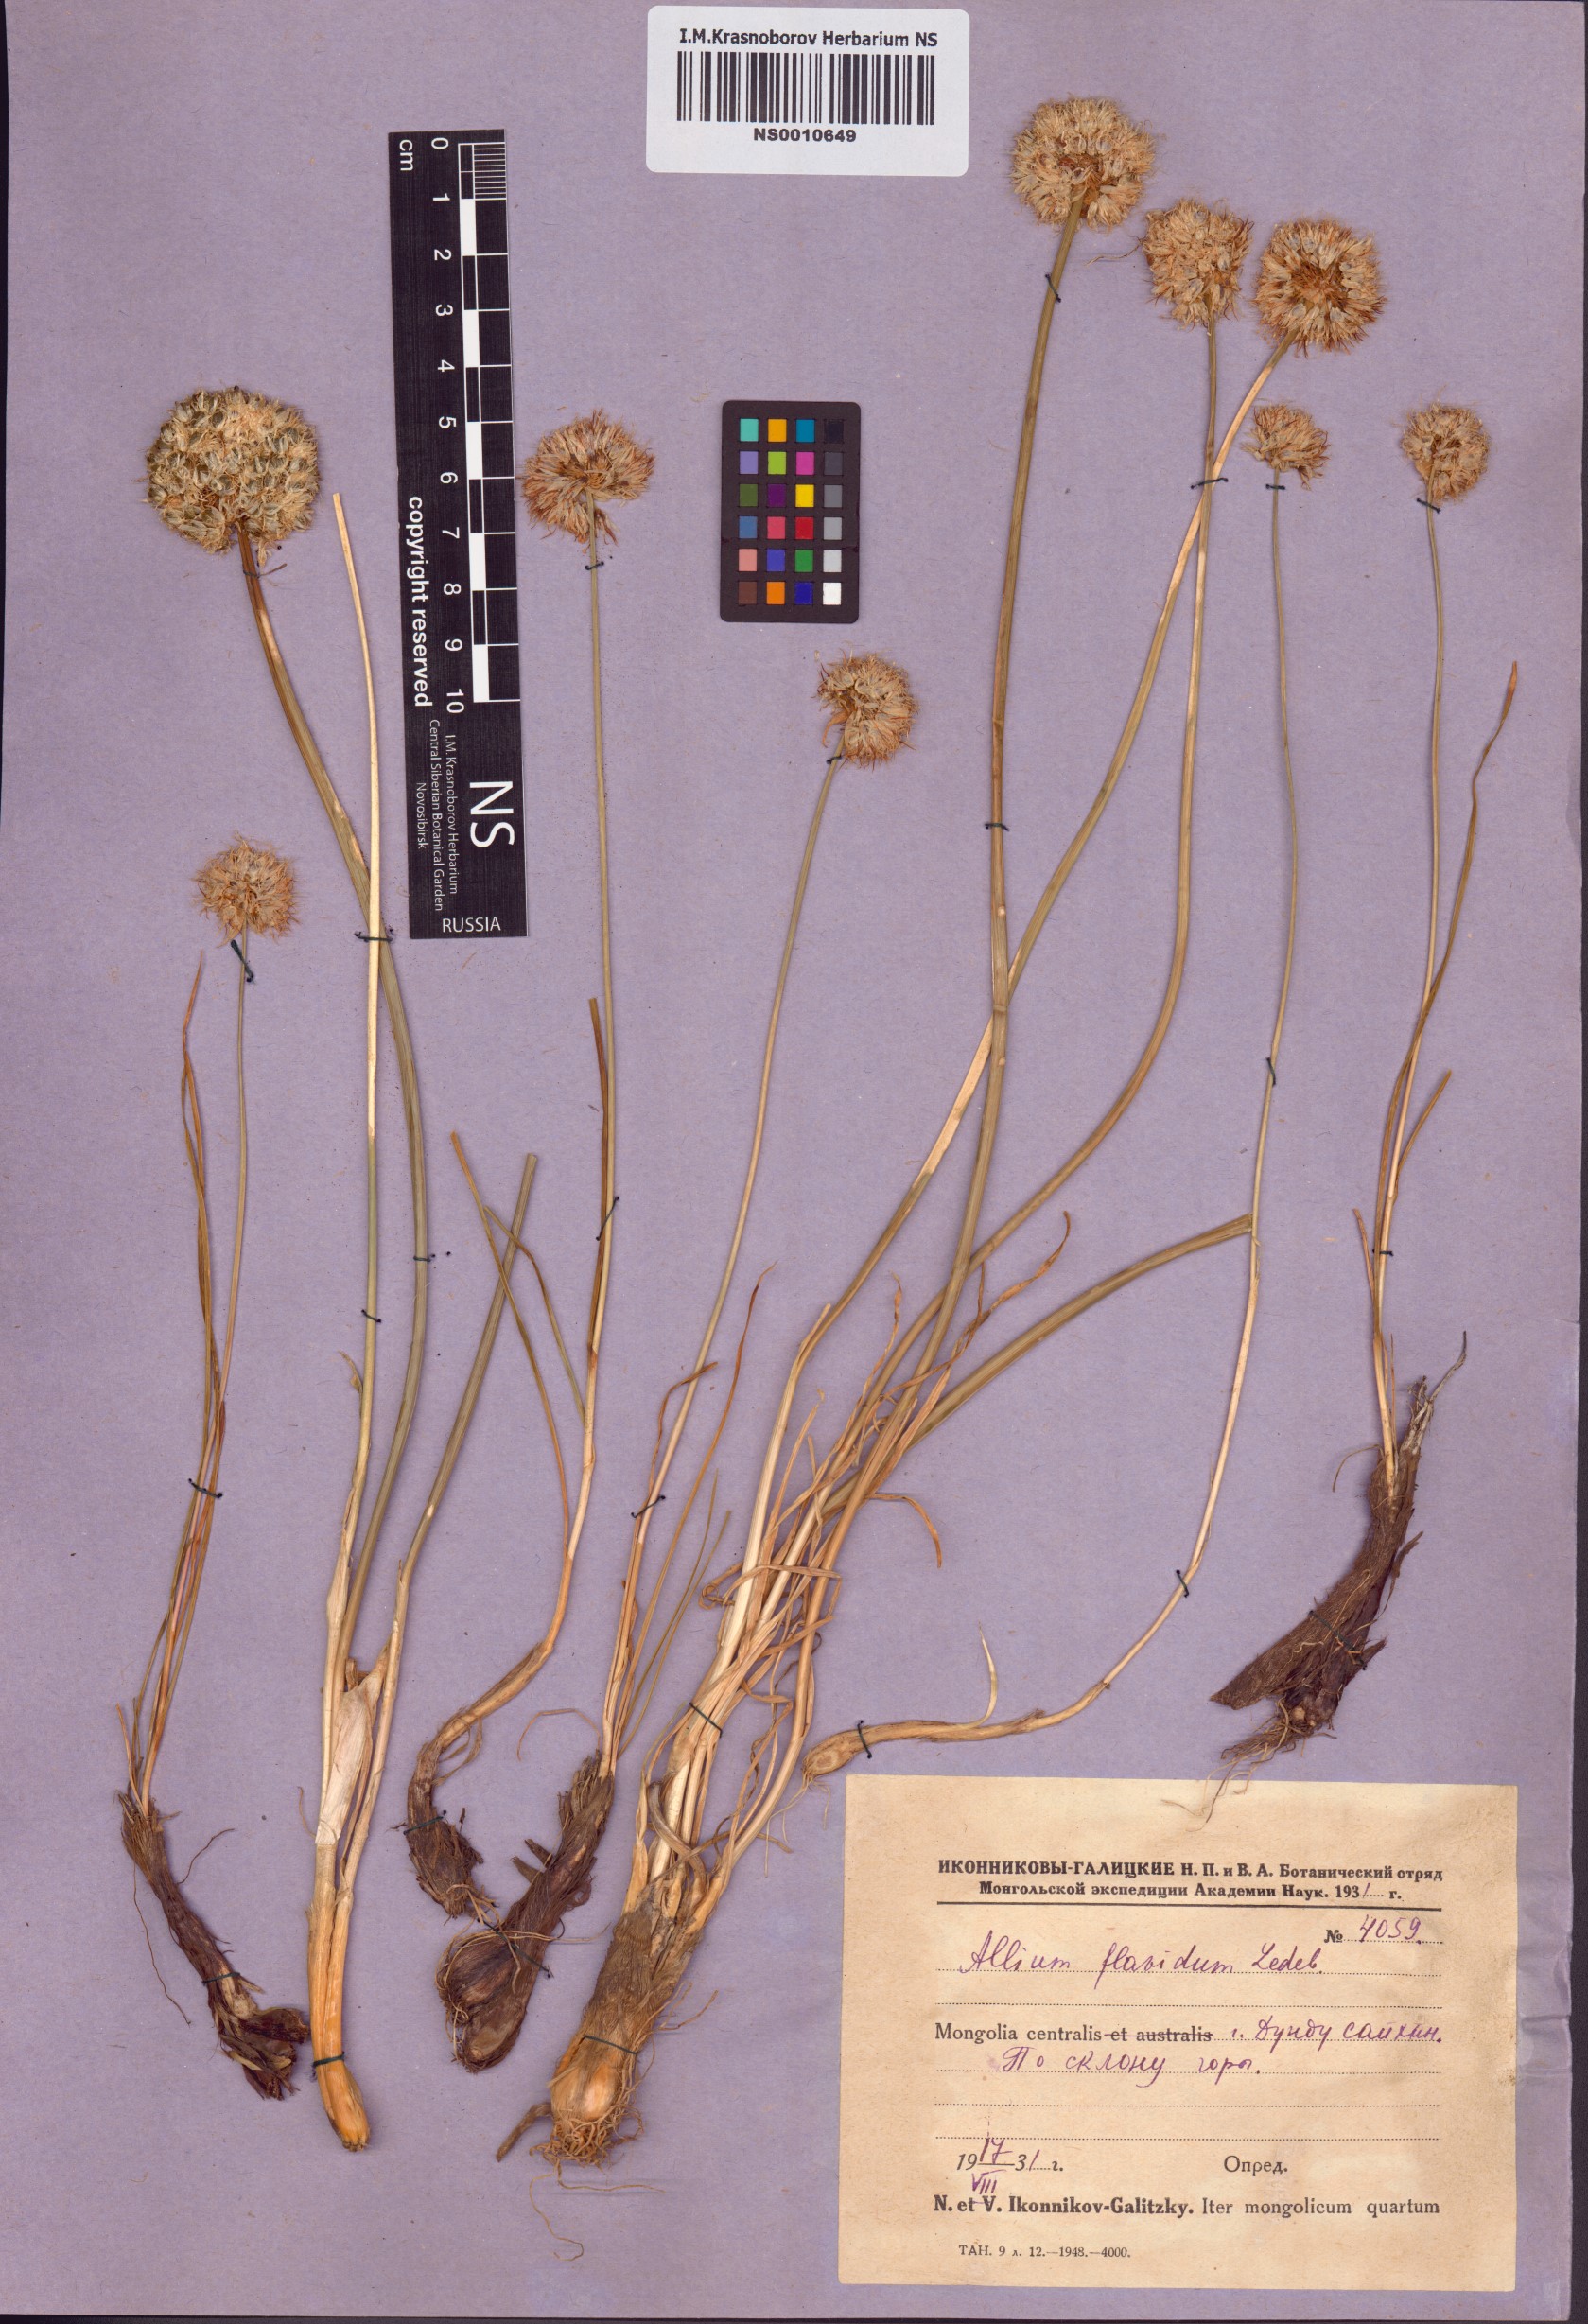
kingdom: Plantae
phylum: Tracheophyta
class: Liliopsida
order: Asparagales
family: Amaryllidaceae
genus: Allium
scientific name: Allium flavidum
